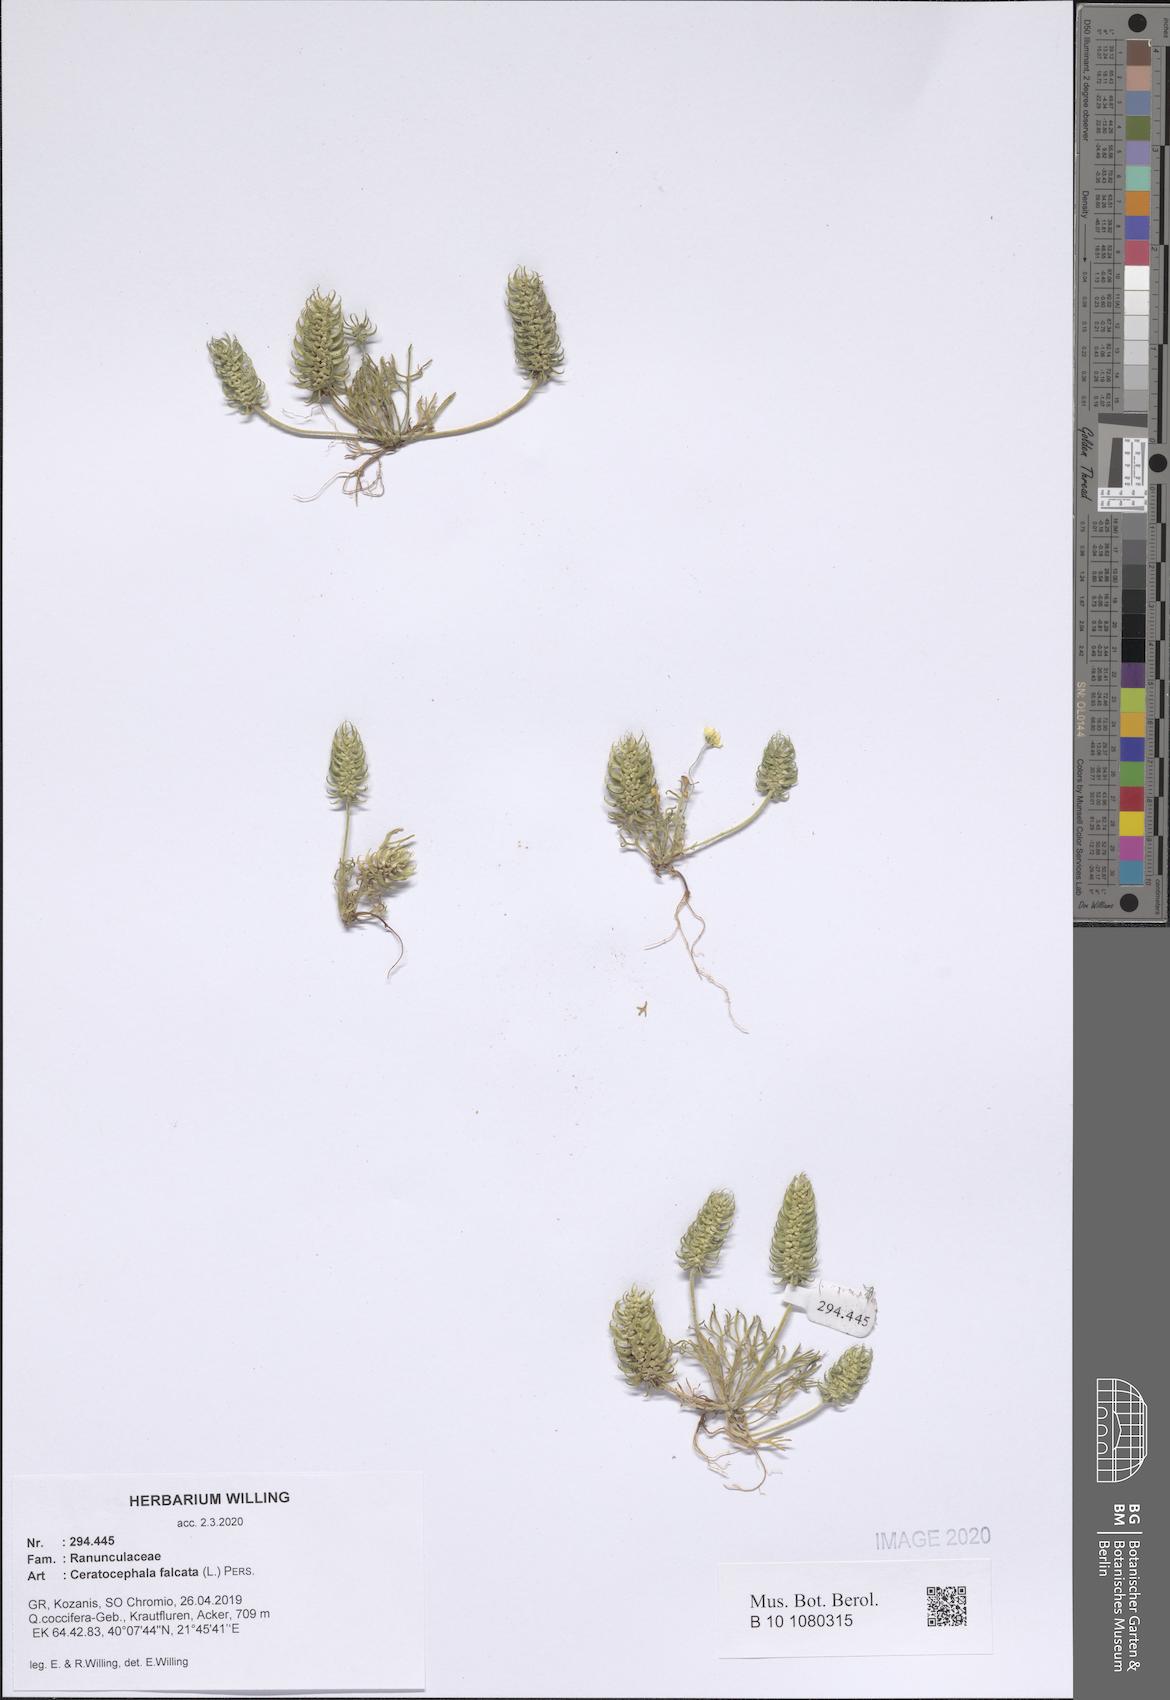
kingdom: Plantae
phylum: Tracheophyta
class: Magnoliopsida
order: Ranunculales
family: Ranunculaceae
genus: Ceratocephala
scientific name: Ceratocephala falcata
